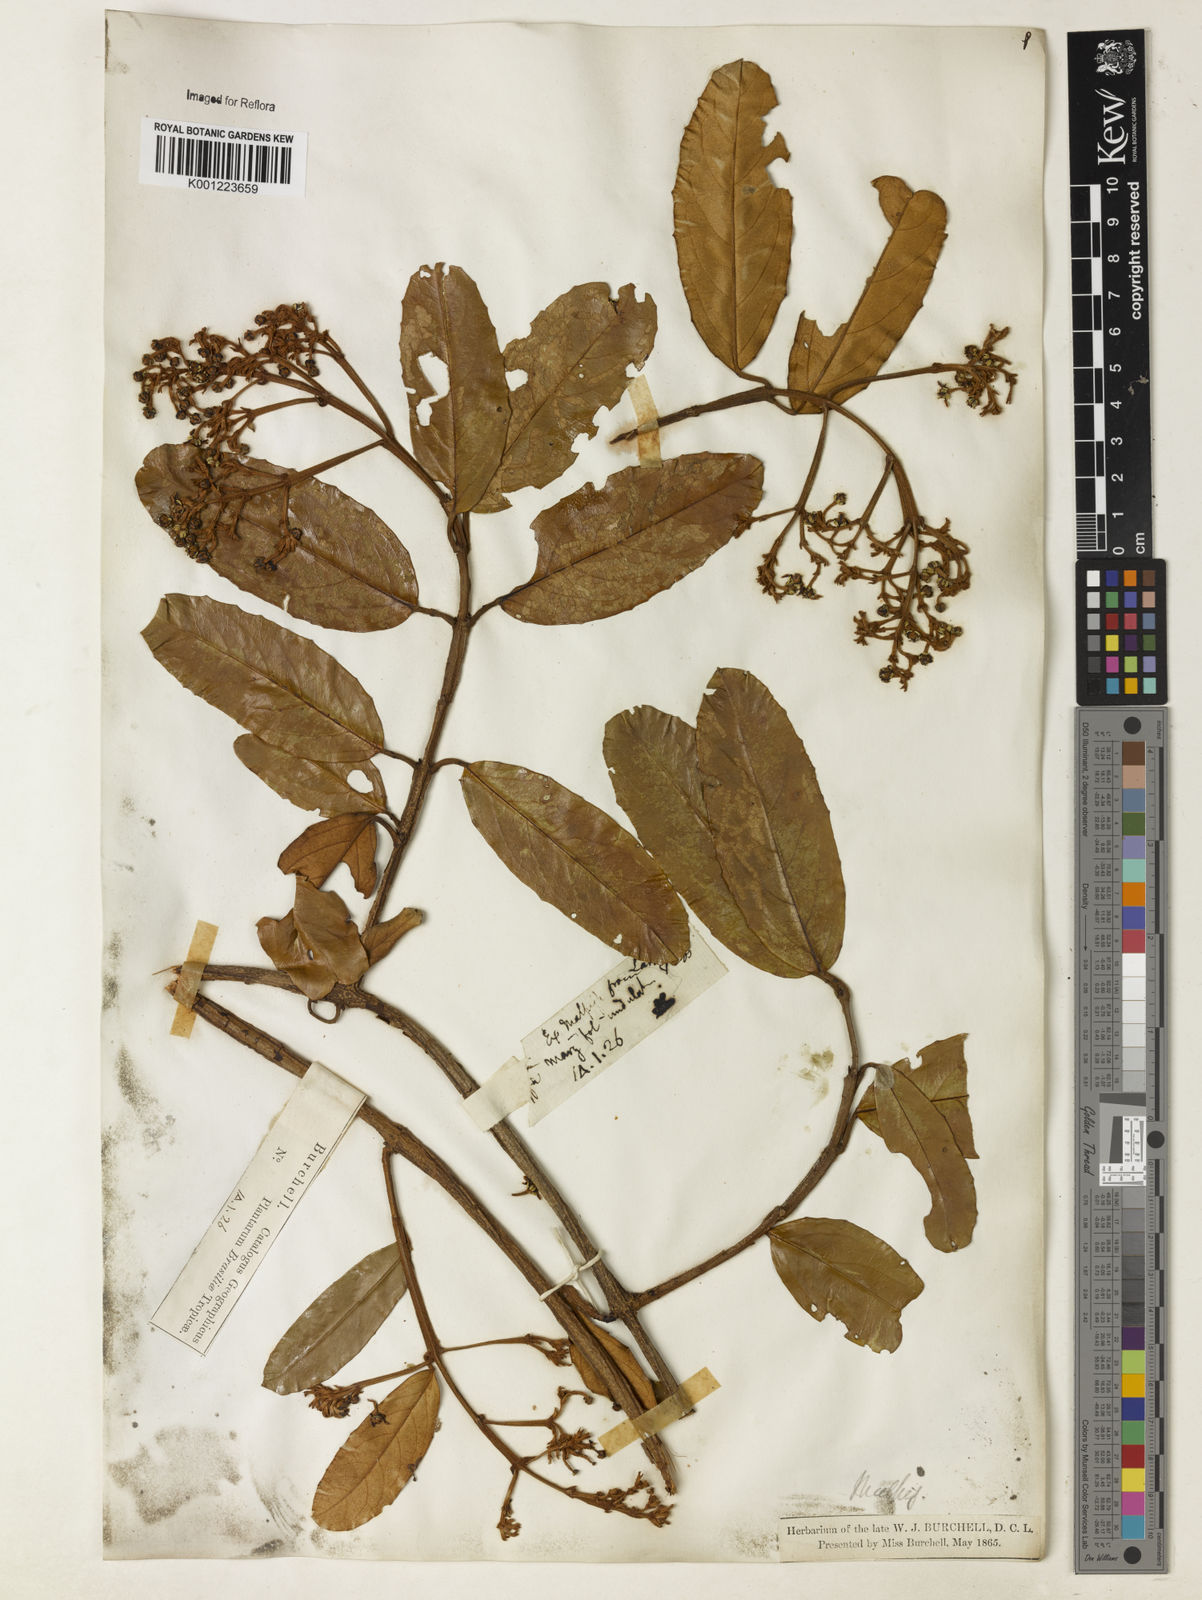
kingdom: Plantae
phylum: Tracheophyta
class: Magnoliopsida
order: Malpighiales
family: Malpighiaceae
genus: Heteropterys
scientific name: Heteropterys sericea
